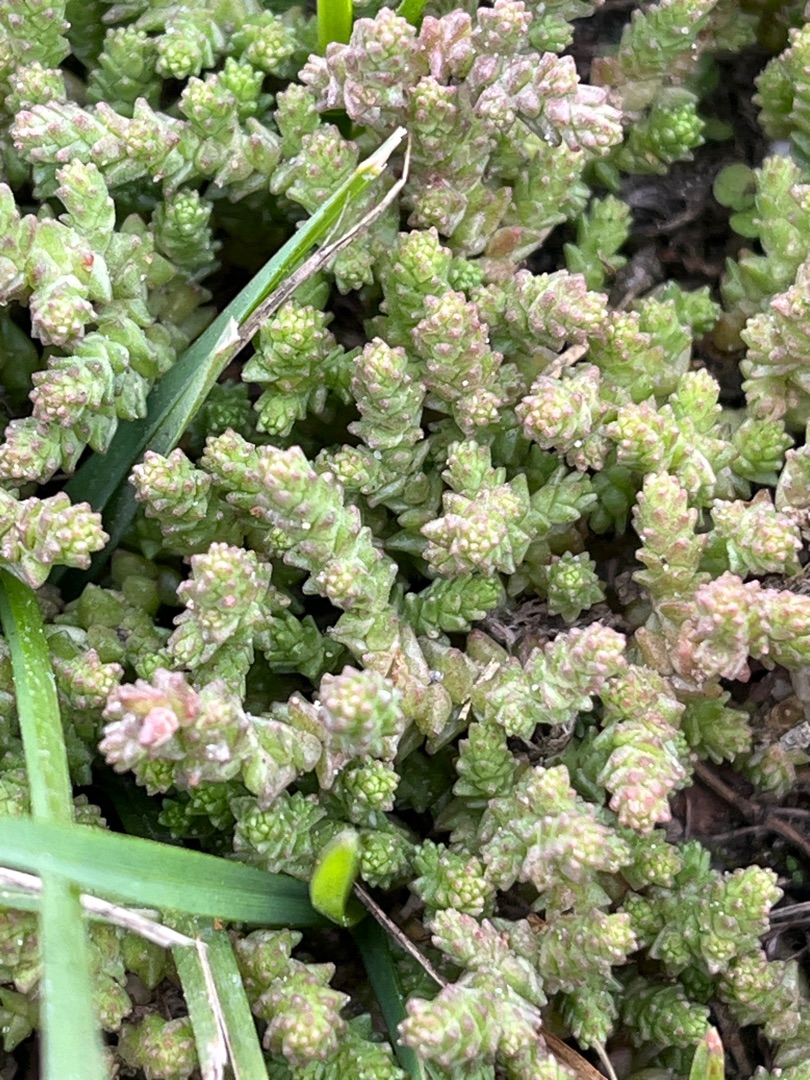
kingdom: Plantae
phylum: Tracheophyta
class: Magnoliopsida
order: Saxifragales
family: Crassulaceae
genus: Sedum
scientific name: Sedum acre
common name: Bidende stenurt
